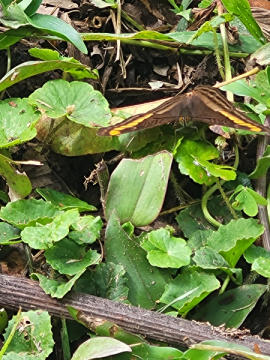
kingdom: Animalia
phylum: Arthropoda
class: Insecta
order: Lepidoptera
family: Nymphalidae
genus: Limenitis
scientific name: Limenitis
